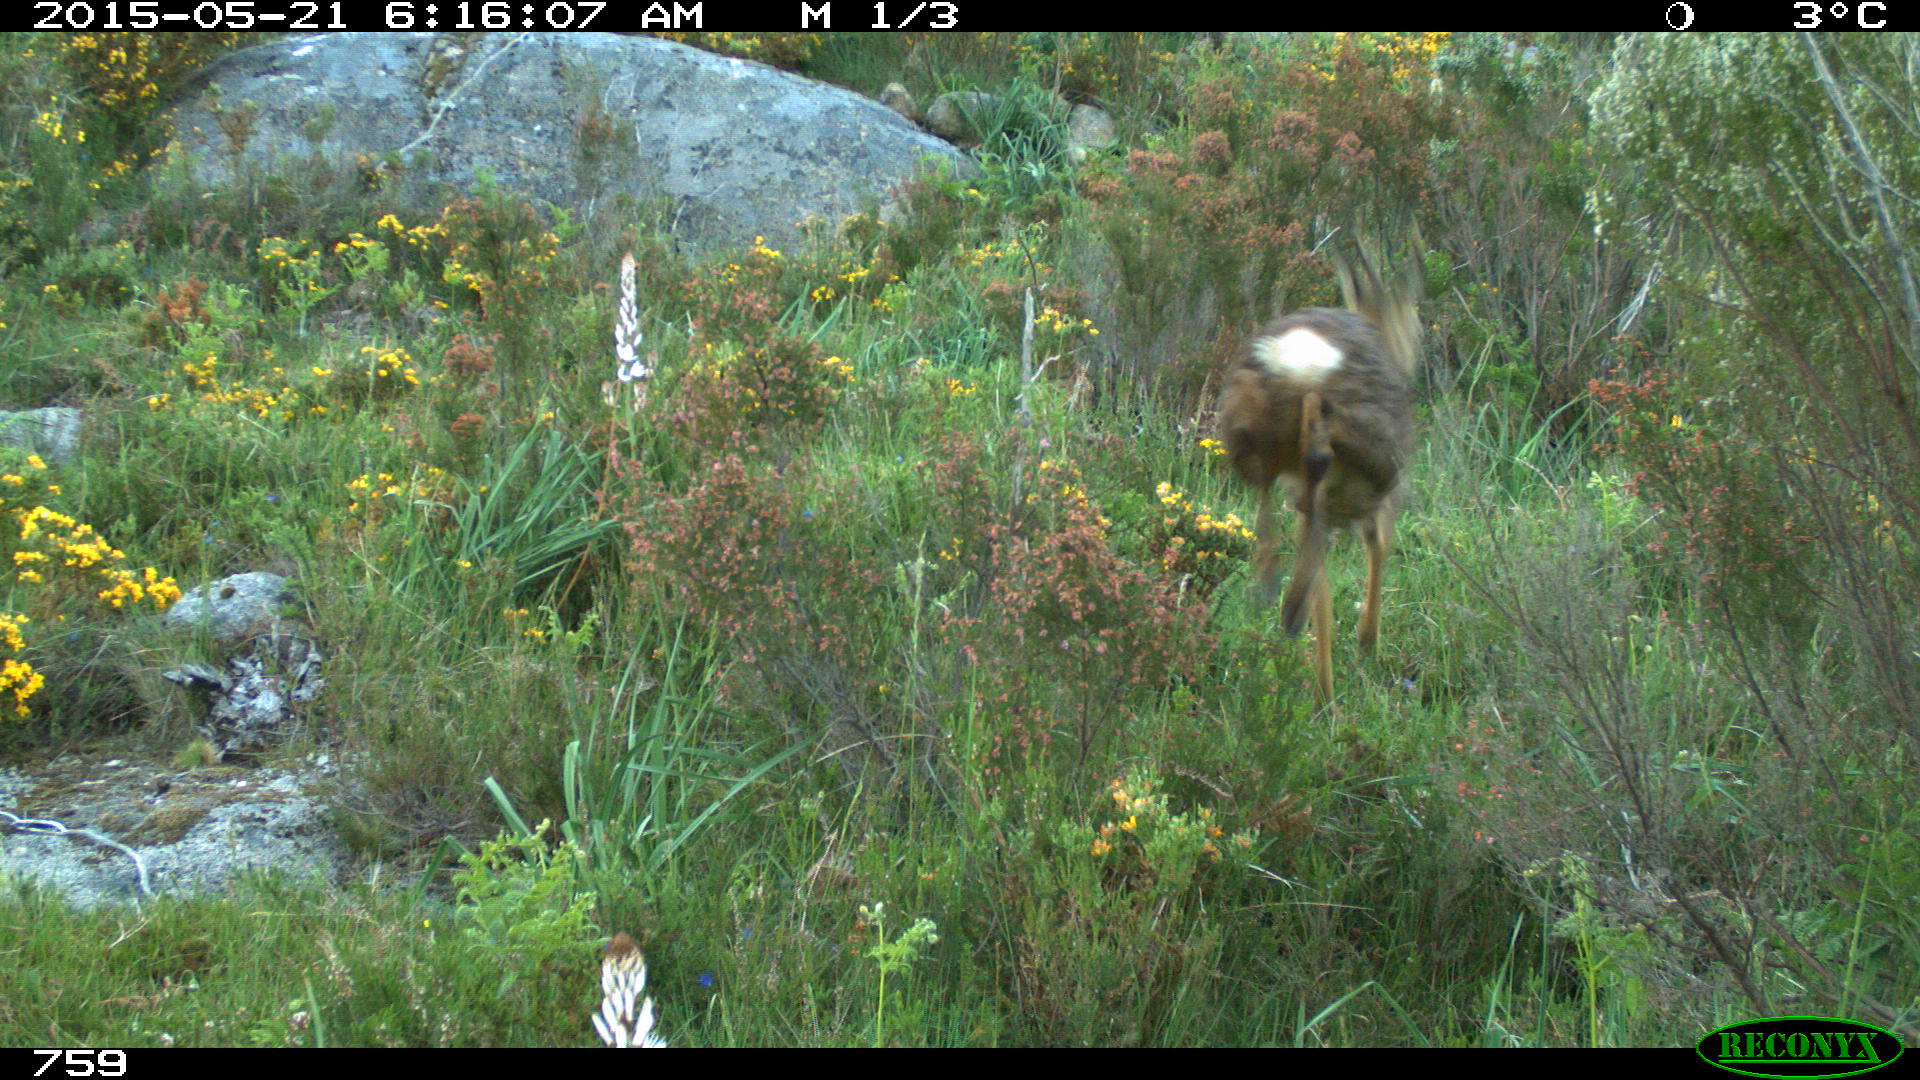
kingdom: Animalia
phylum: Chordata
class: Mammalia
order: Artiodactyla
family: Cervidae
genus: Capreolus
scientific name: Capreolus capreolus
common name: Western roe deer
